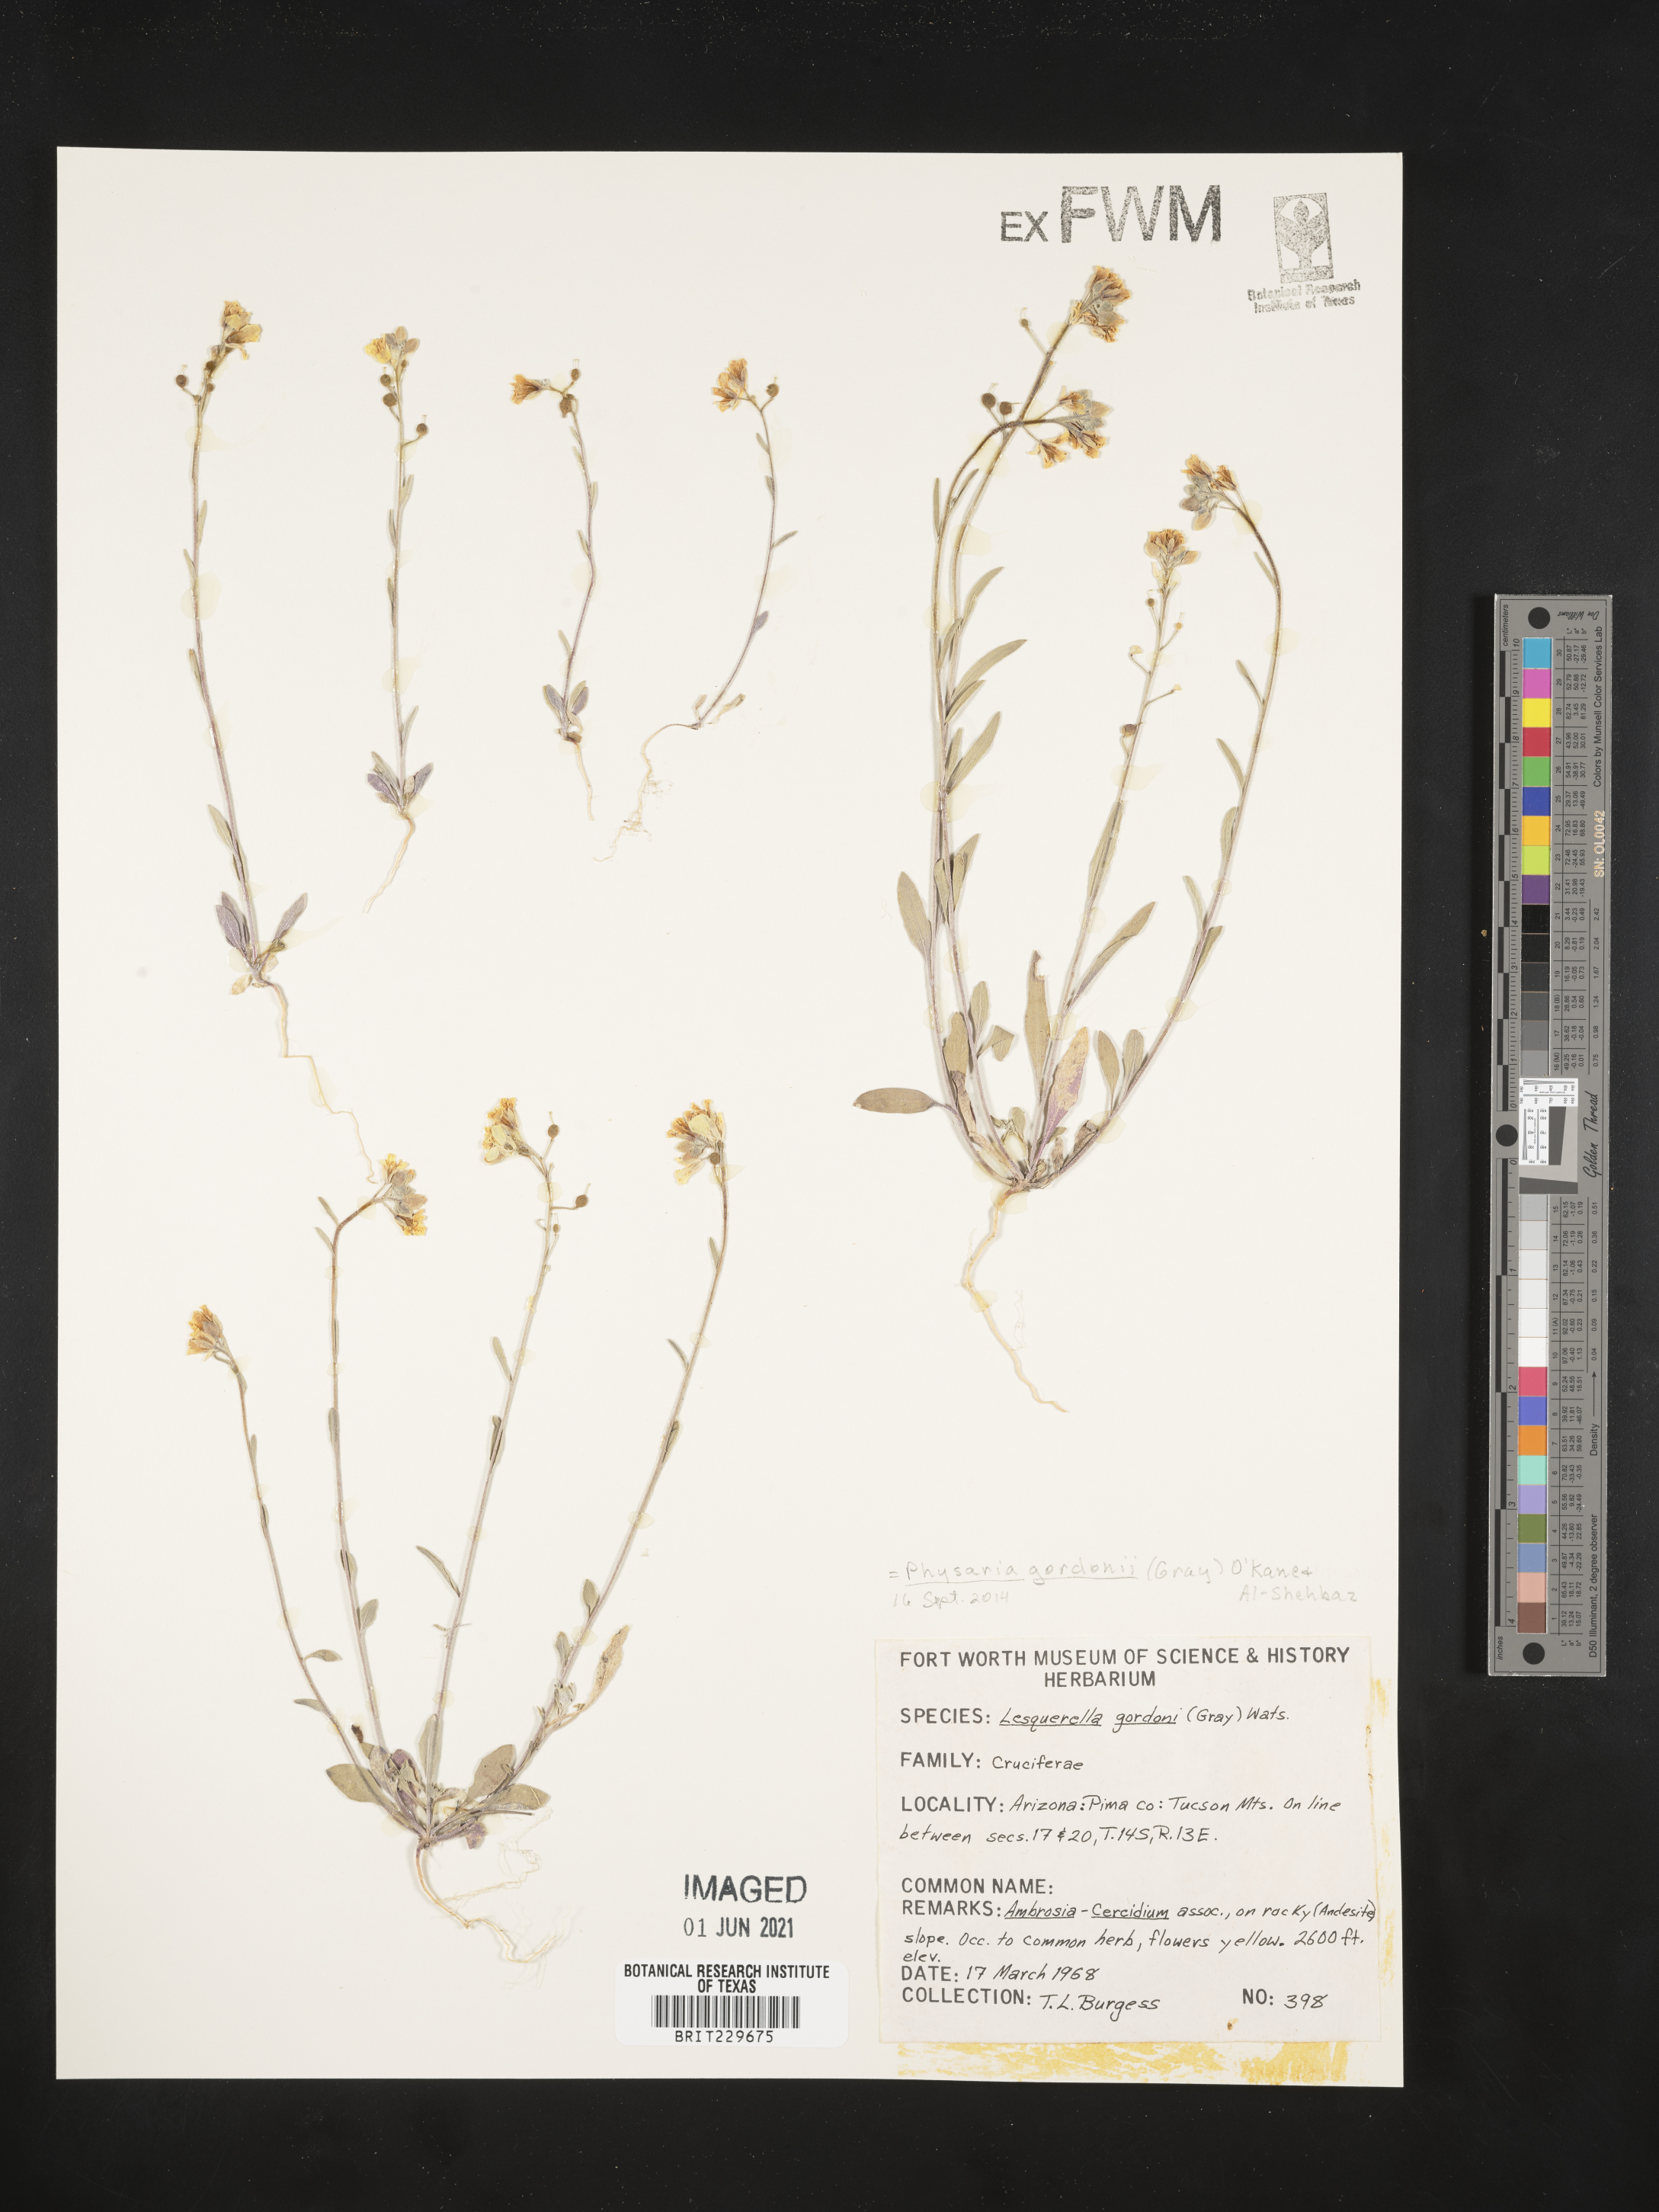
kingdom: Plantae
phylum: Tracheophyta
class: Magnoliopsida
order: Brassicales
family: Brassicaceae
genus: Physaria
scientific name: Physaria gordonii
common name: Gordon's bladderpod
